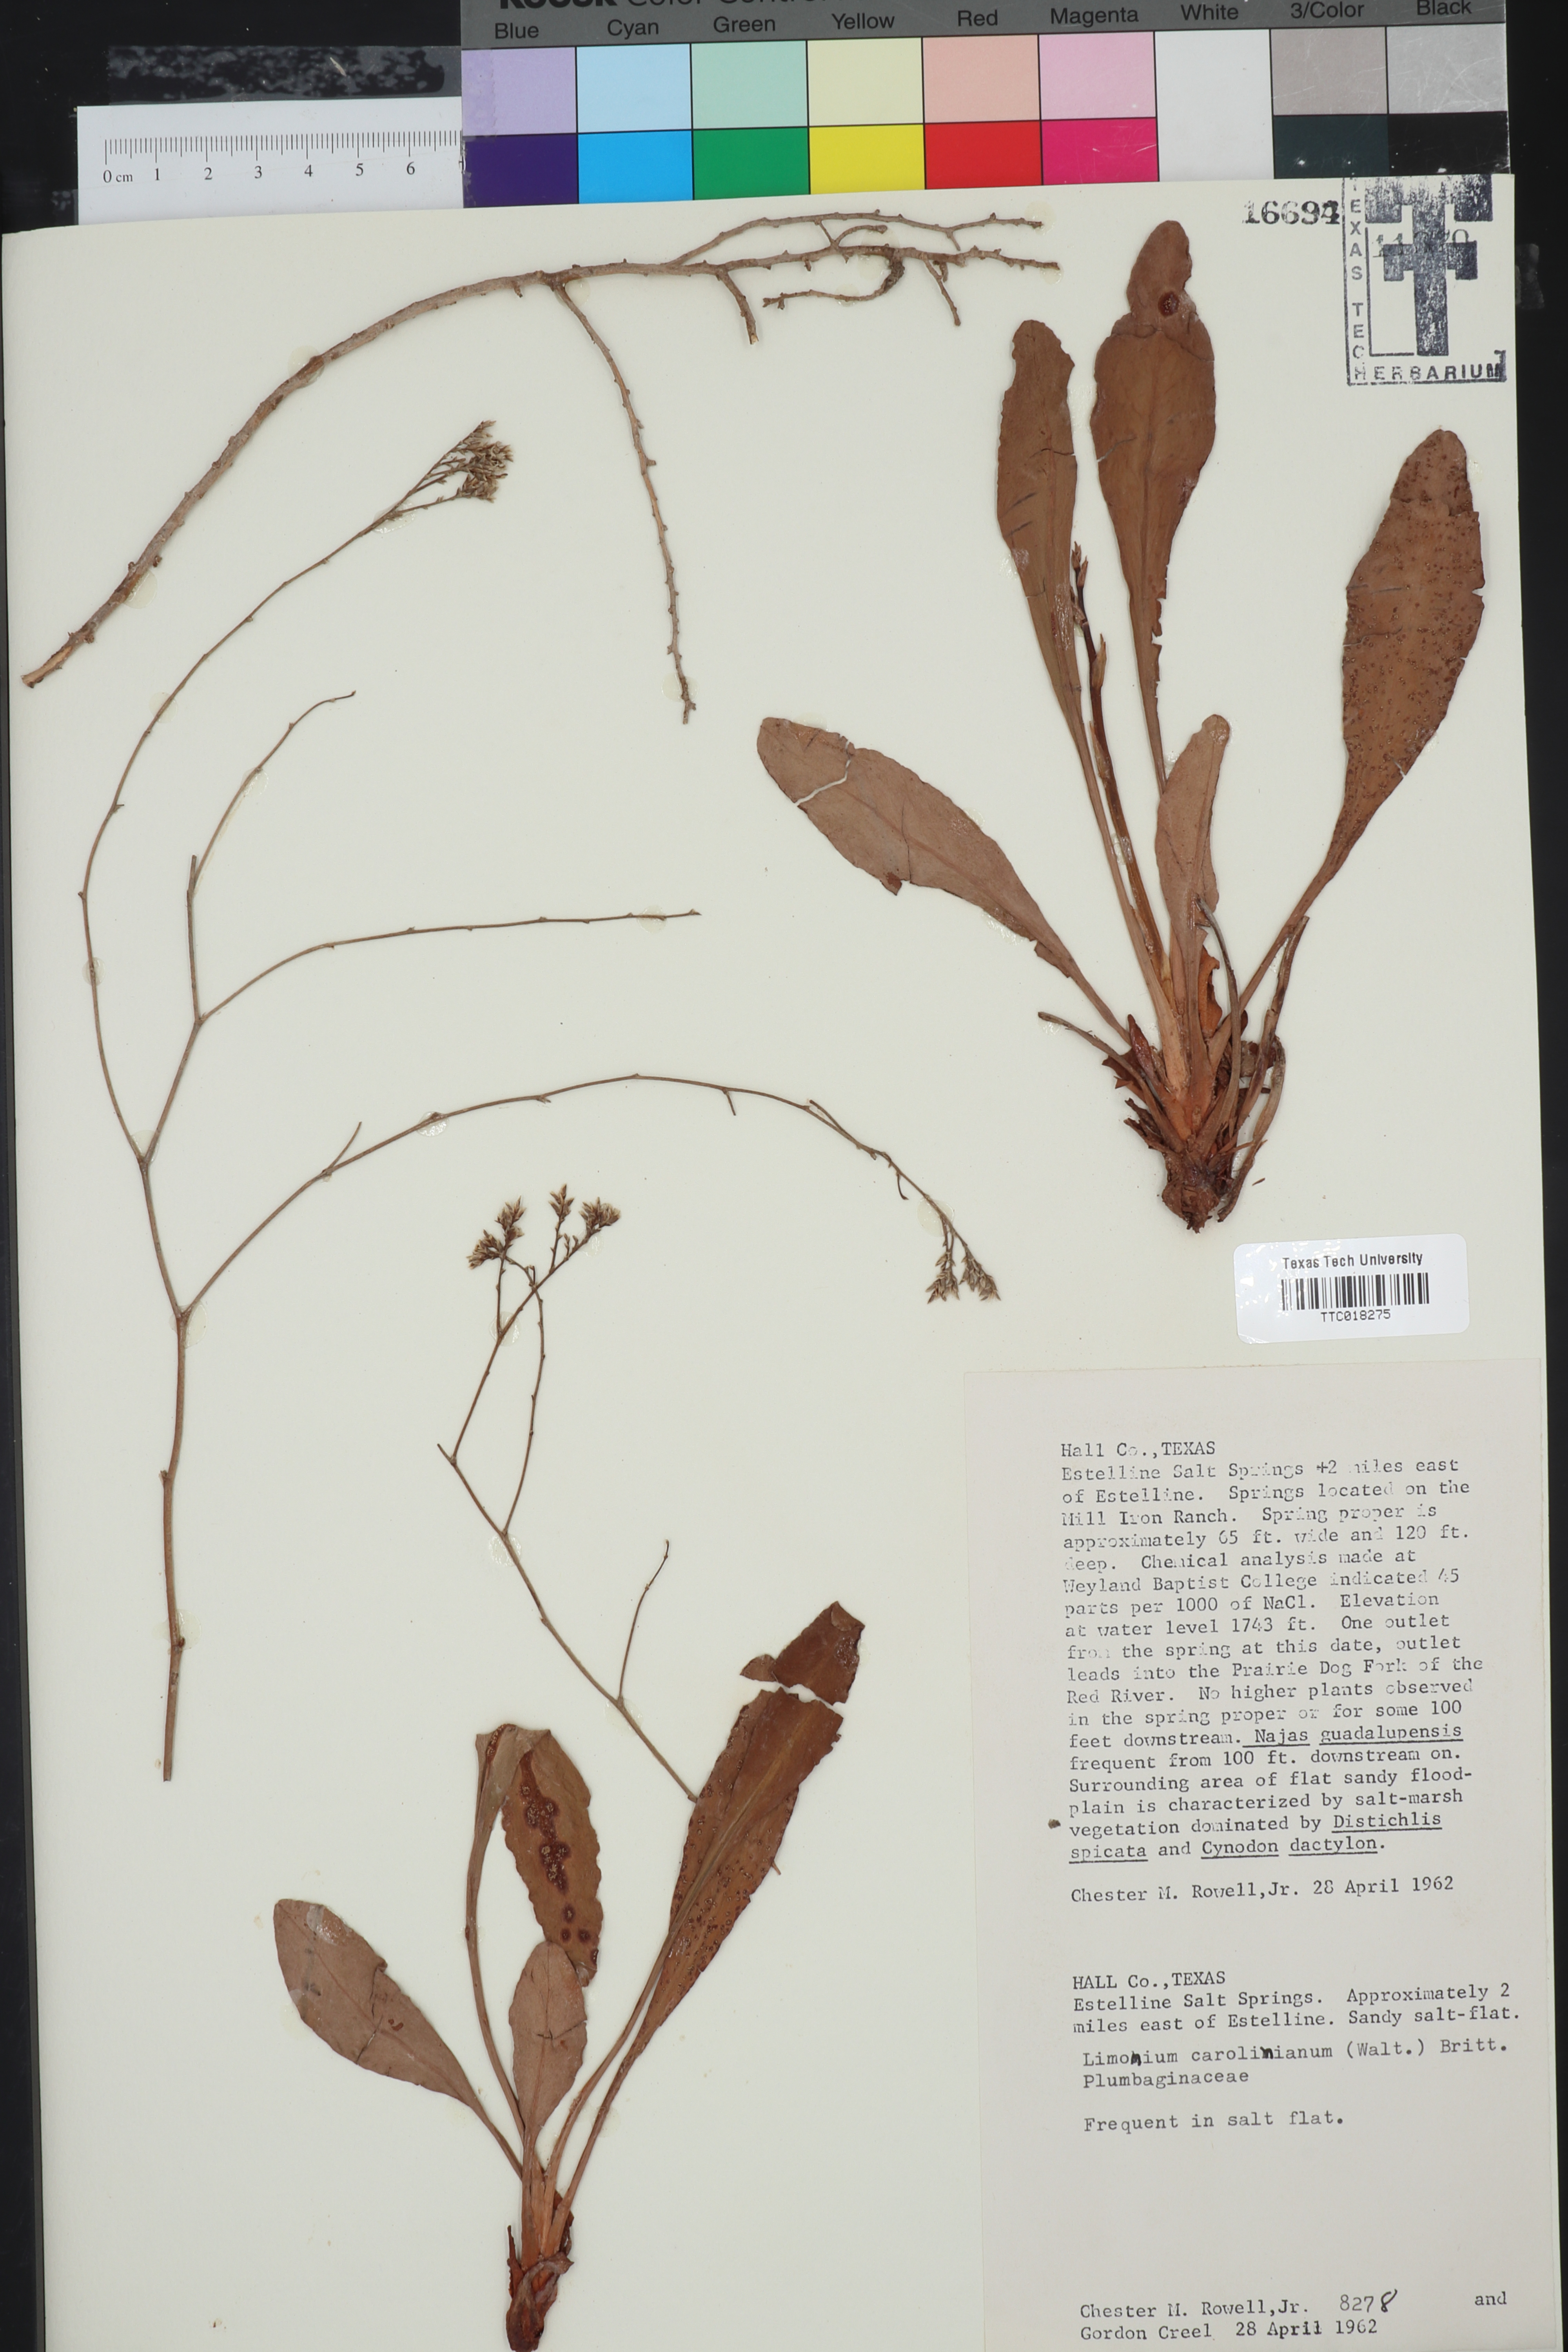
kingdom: Plantae
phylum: Tracheophyta
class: Magnoliopsida
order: Caryophyllales
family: Plumbaginaceae
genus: Limonium
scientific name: Limonium carolinianum
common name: Carolina sea lavender
